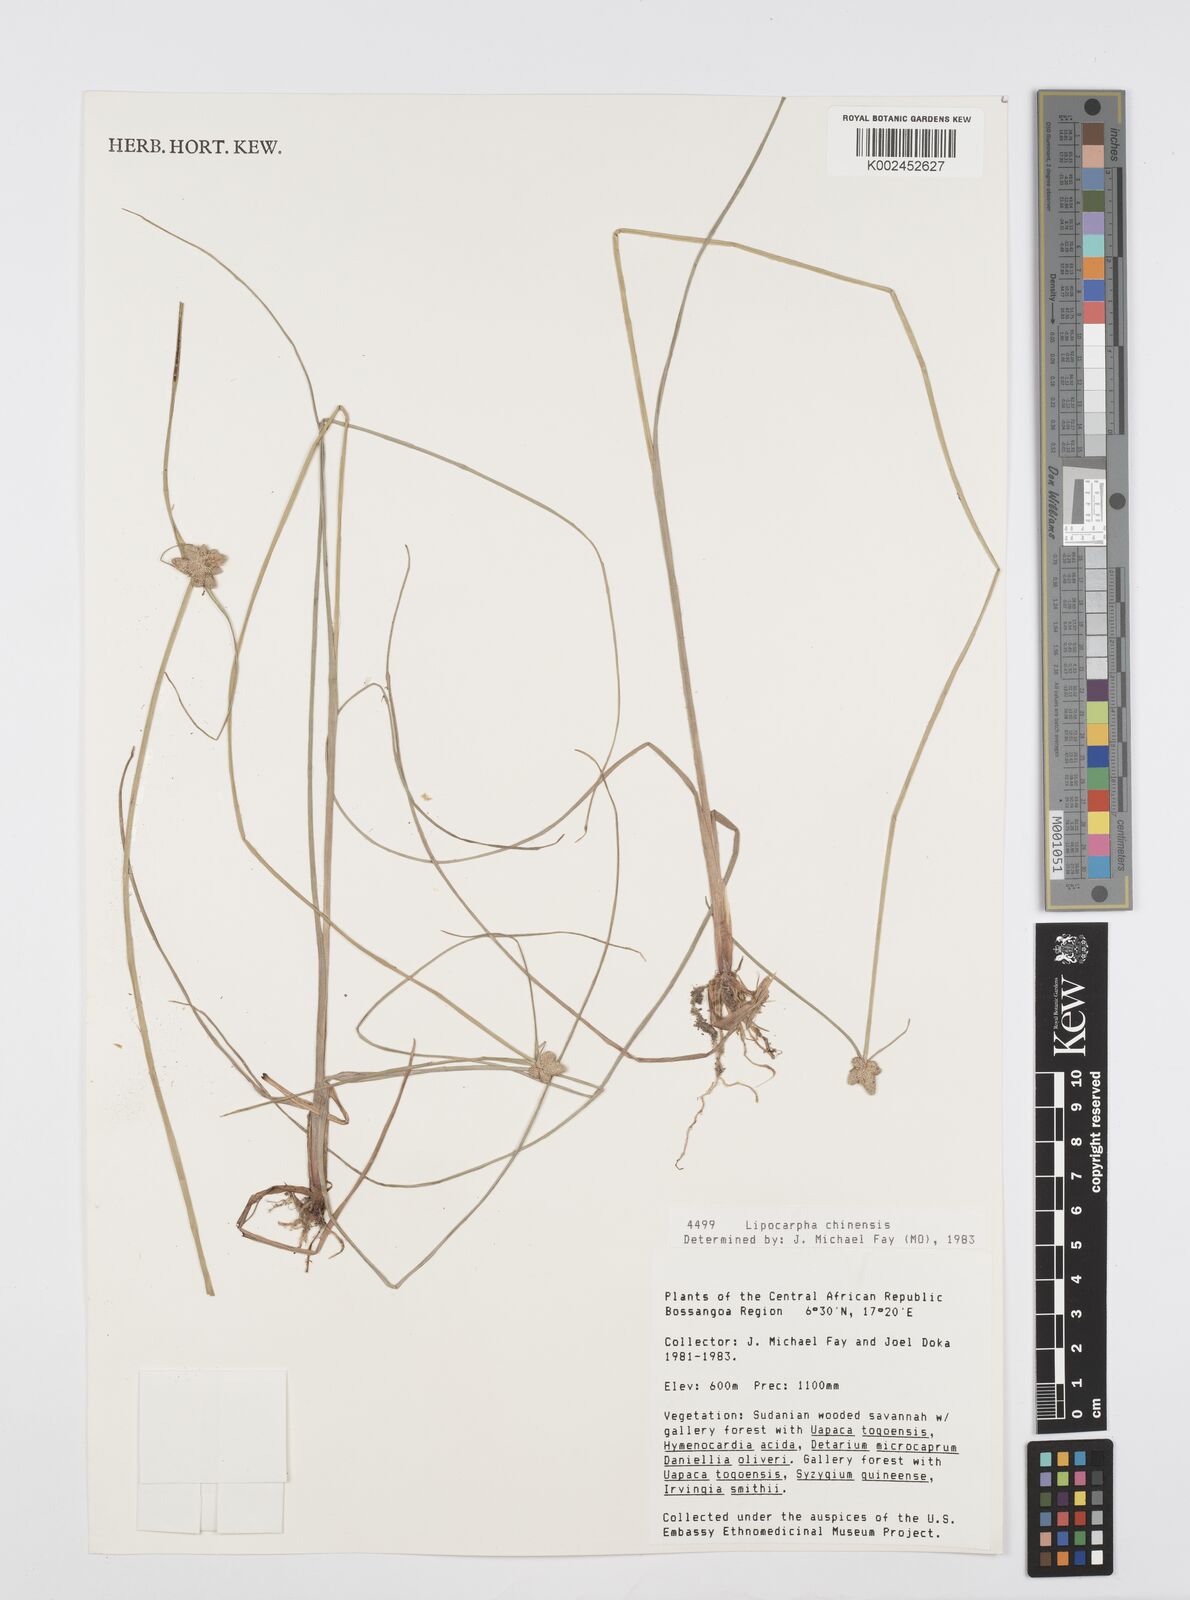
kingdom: Plantae
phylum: Tracheophyta
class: Liliopsida
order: Poales
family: Cyperaceae
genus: Cyperus
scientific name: Cyperus albescens
